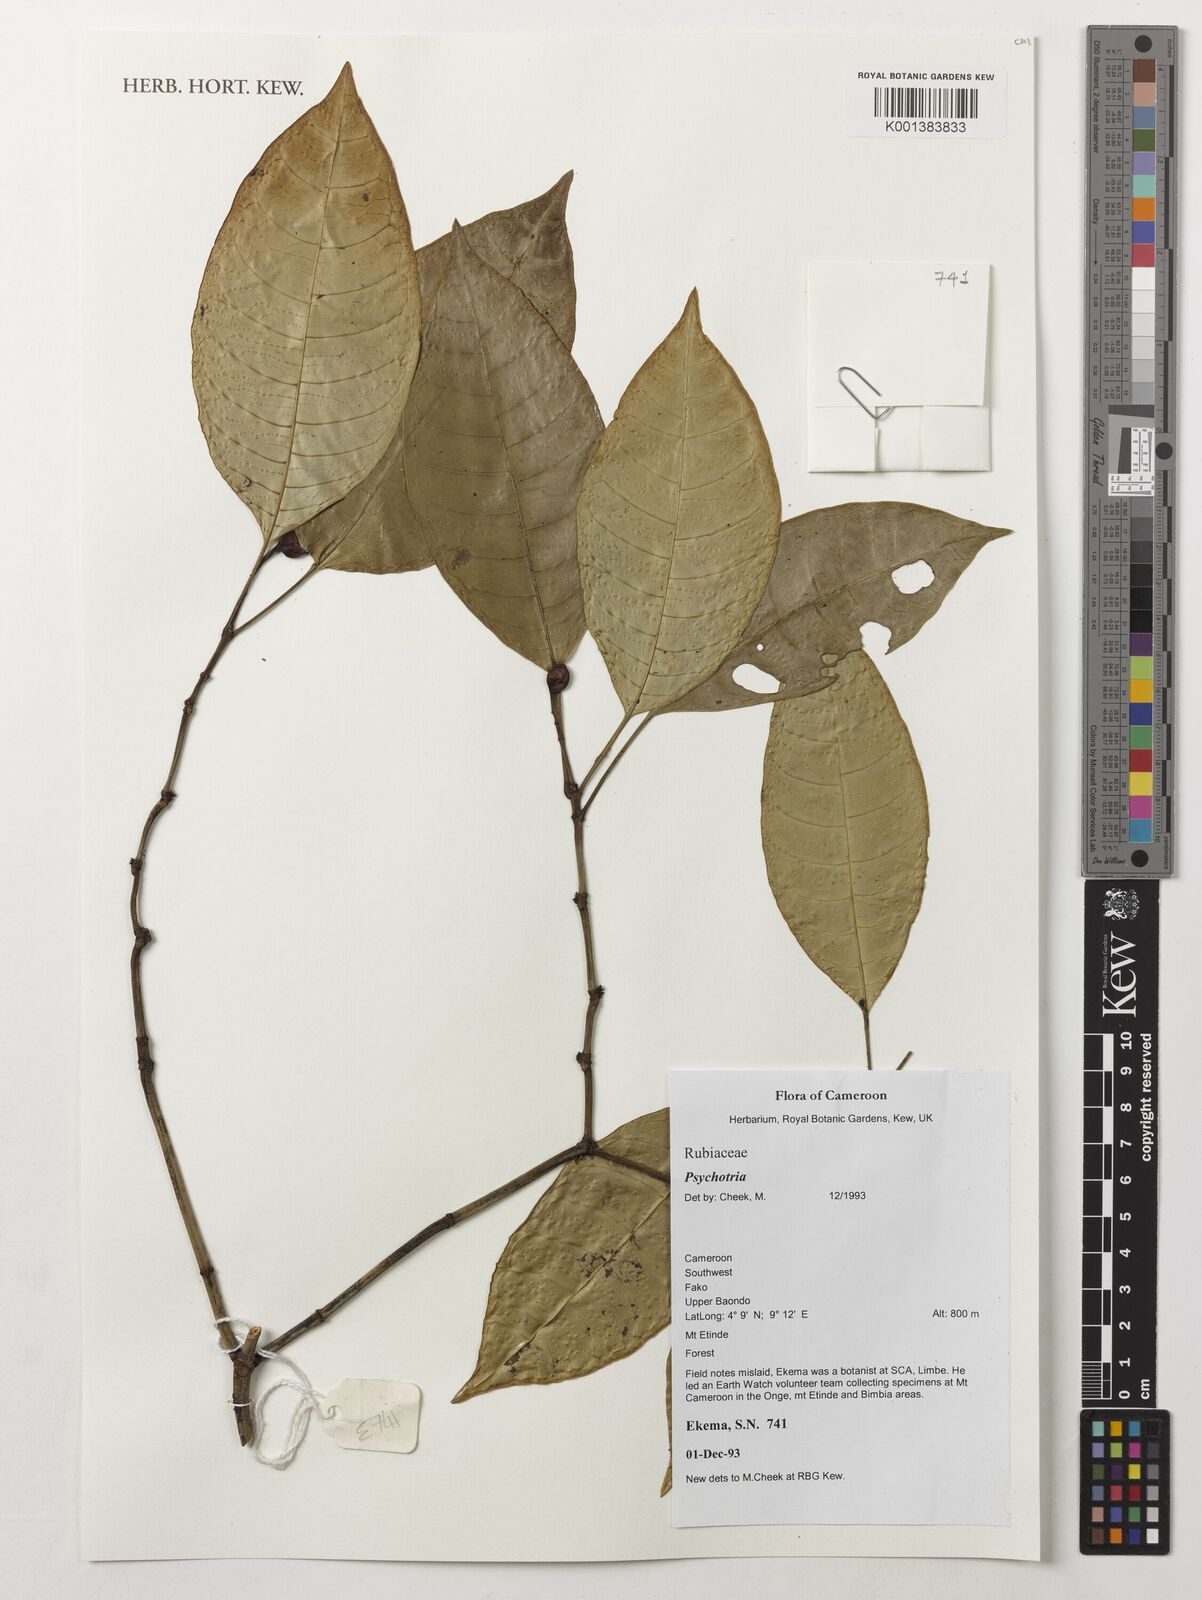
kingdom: Plantae
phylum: Tracheophyta
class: Magnoliopsida
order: Gentianales
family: Rubiaceae
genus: Psychotria
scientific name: Psychotria
